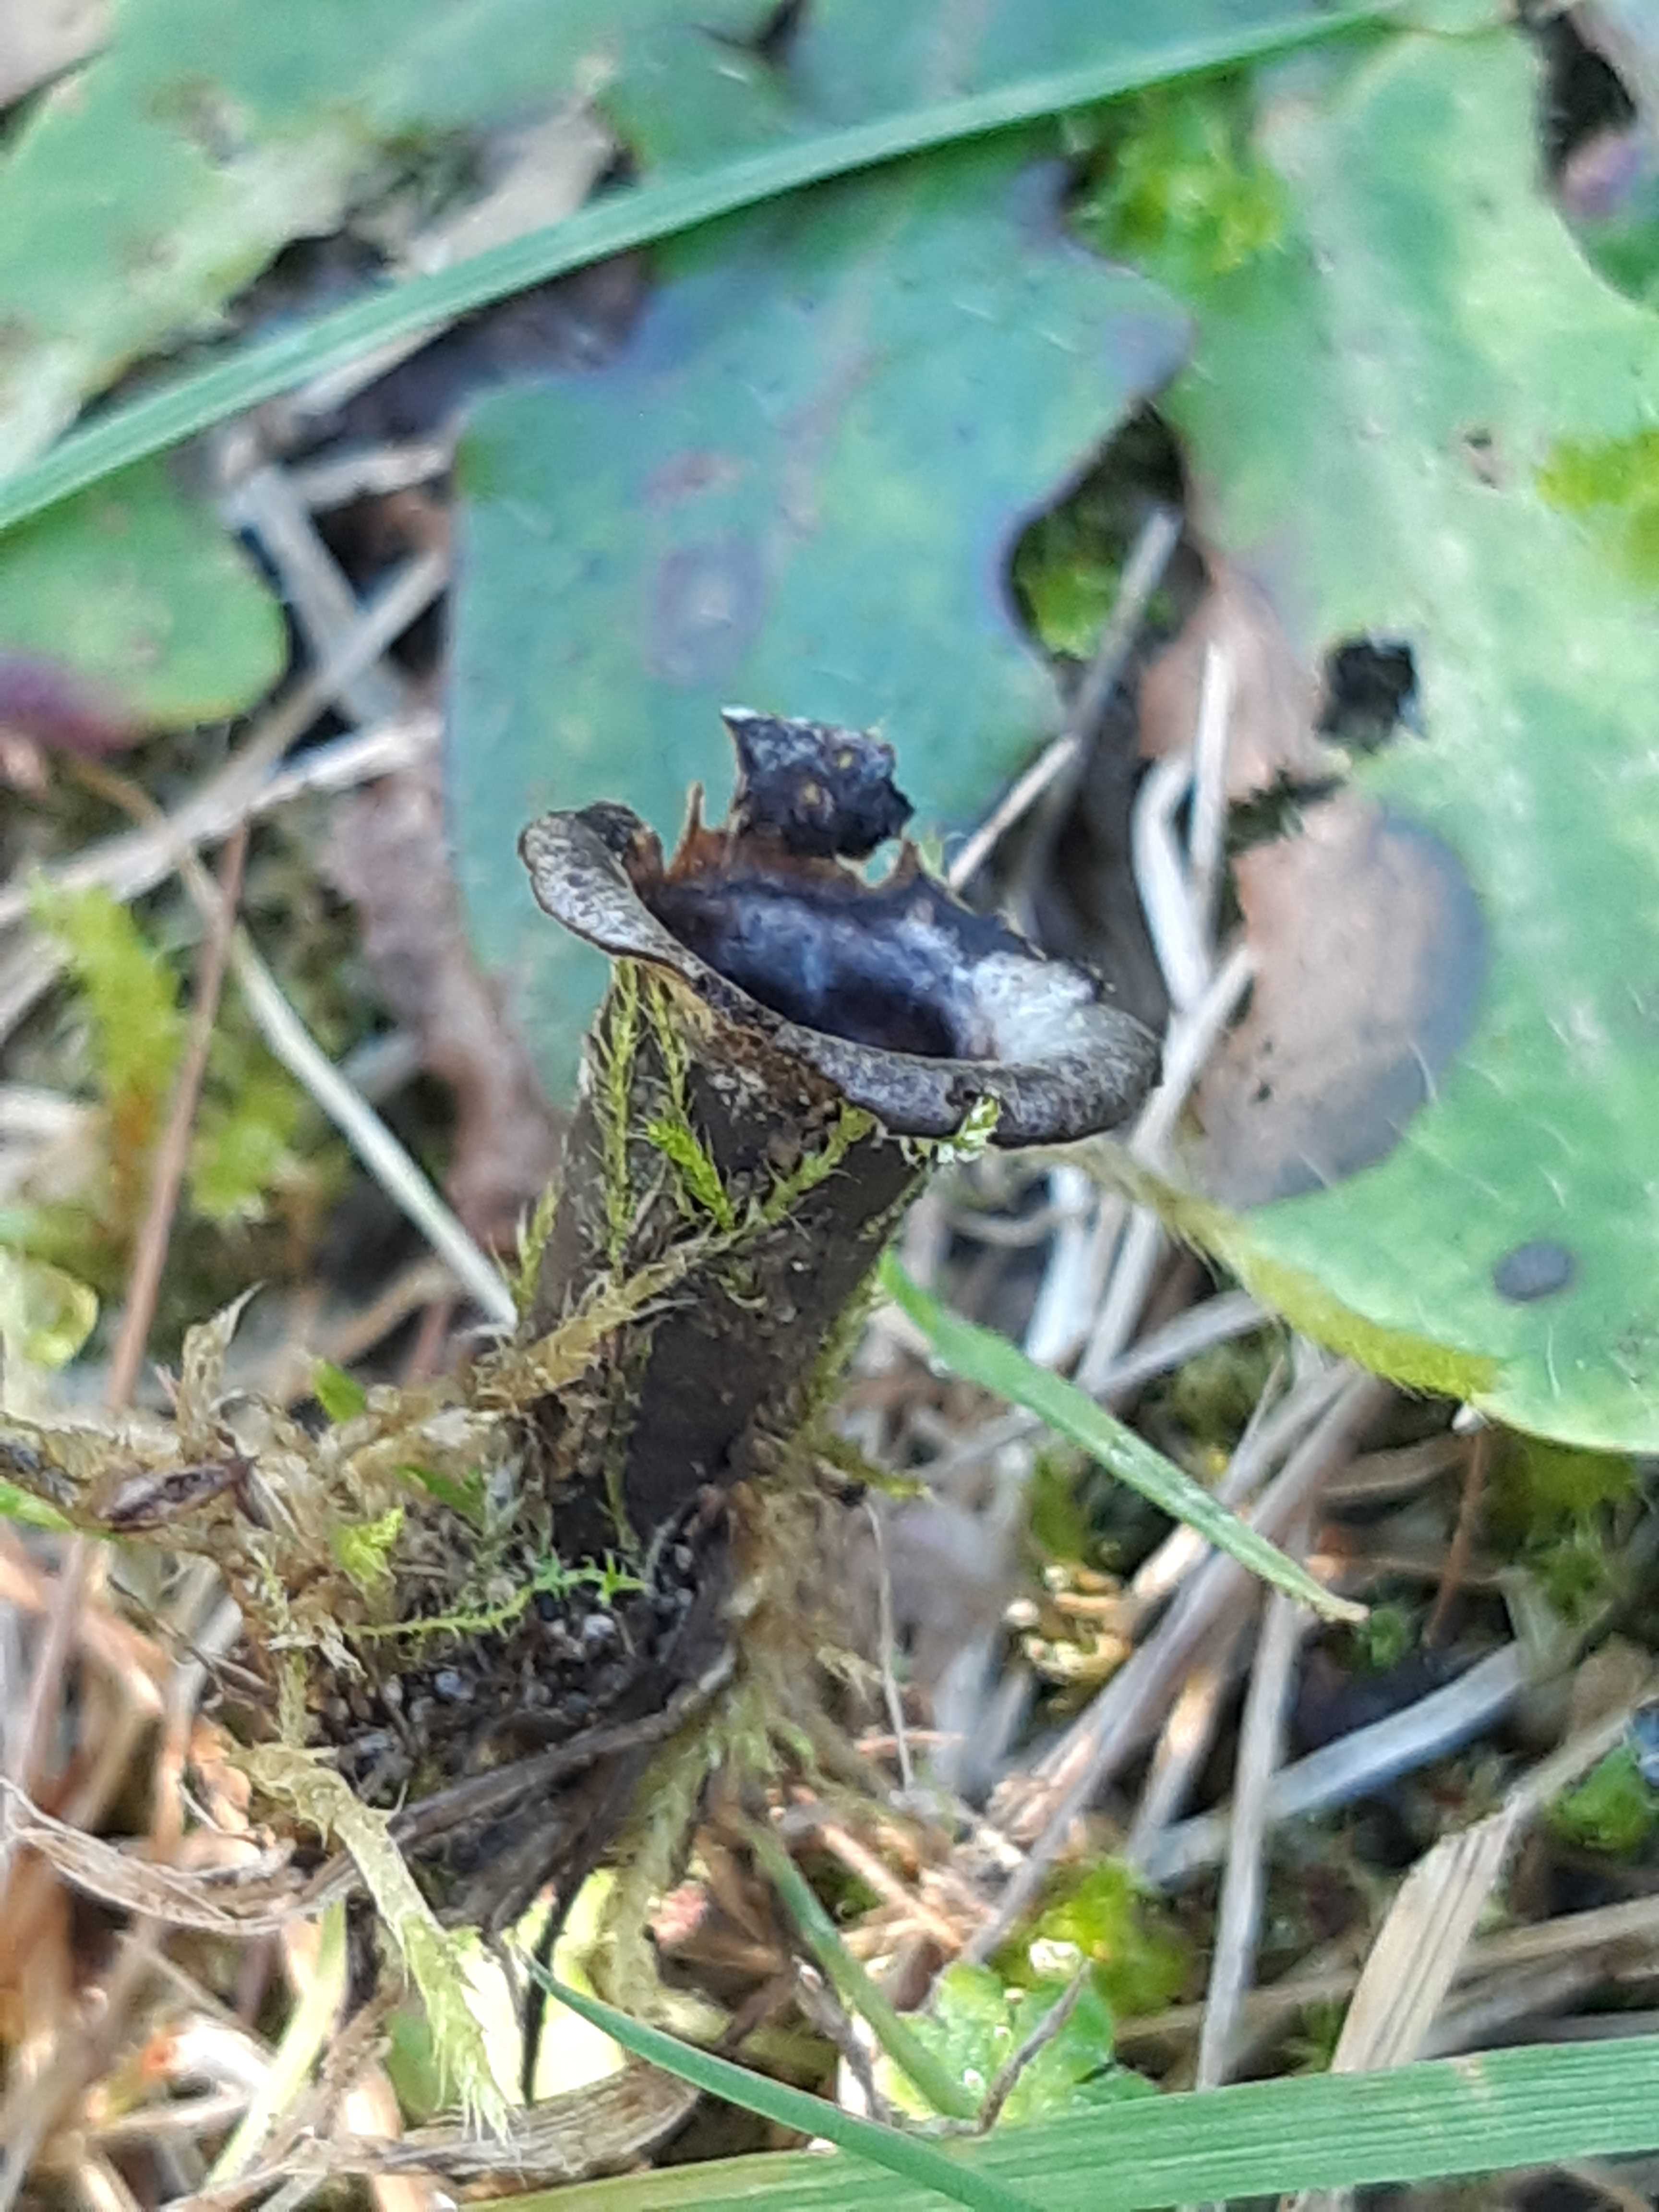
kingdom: Fungi
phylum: Basidiomycota
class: Agaricomycetes
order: Agaricales
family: Agaricaceae
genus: Cyathus
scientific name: Cyathus olla
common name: klokke-redesvamp
